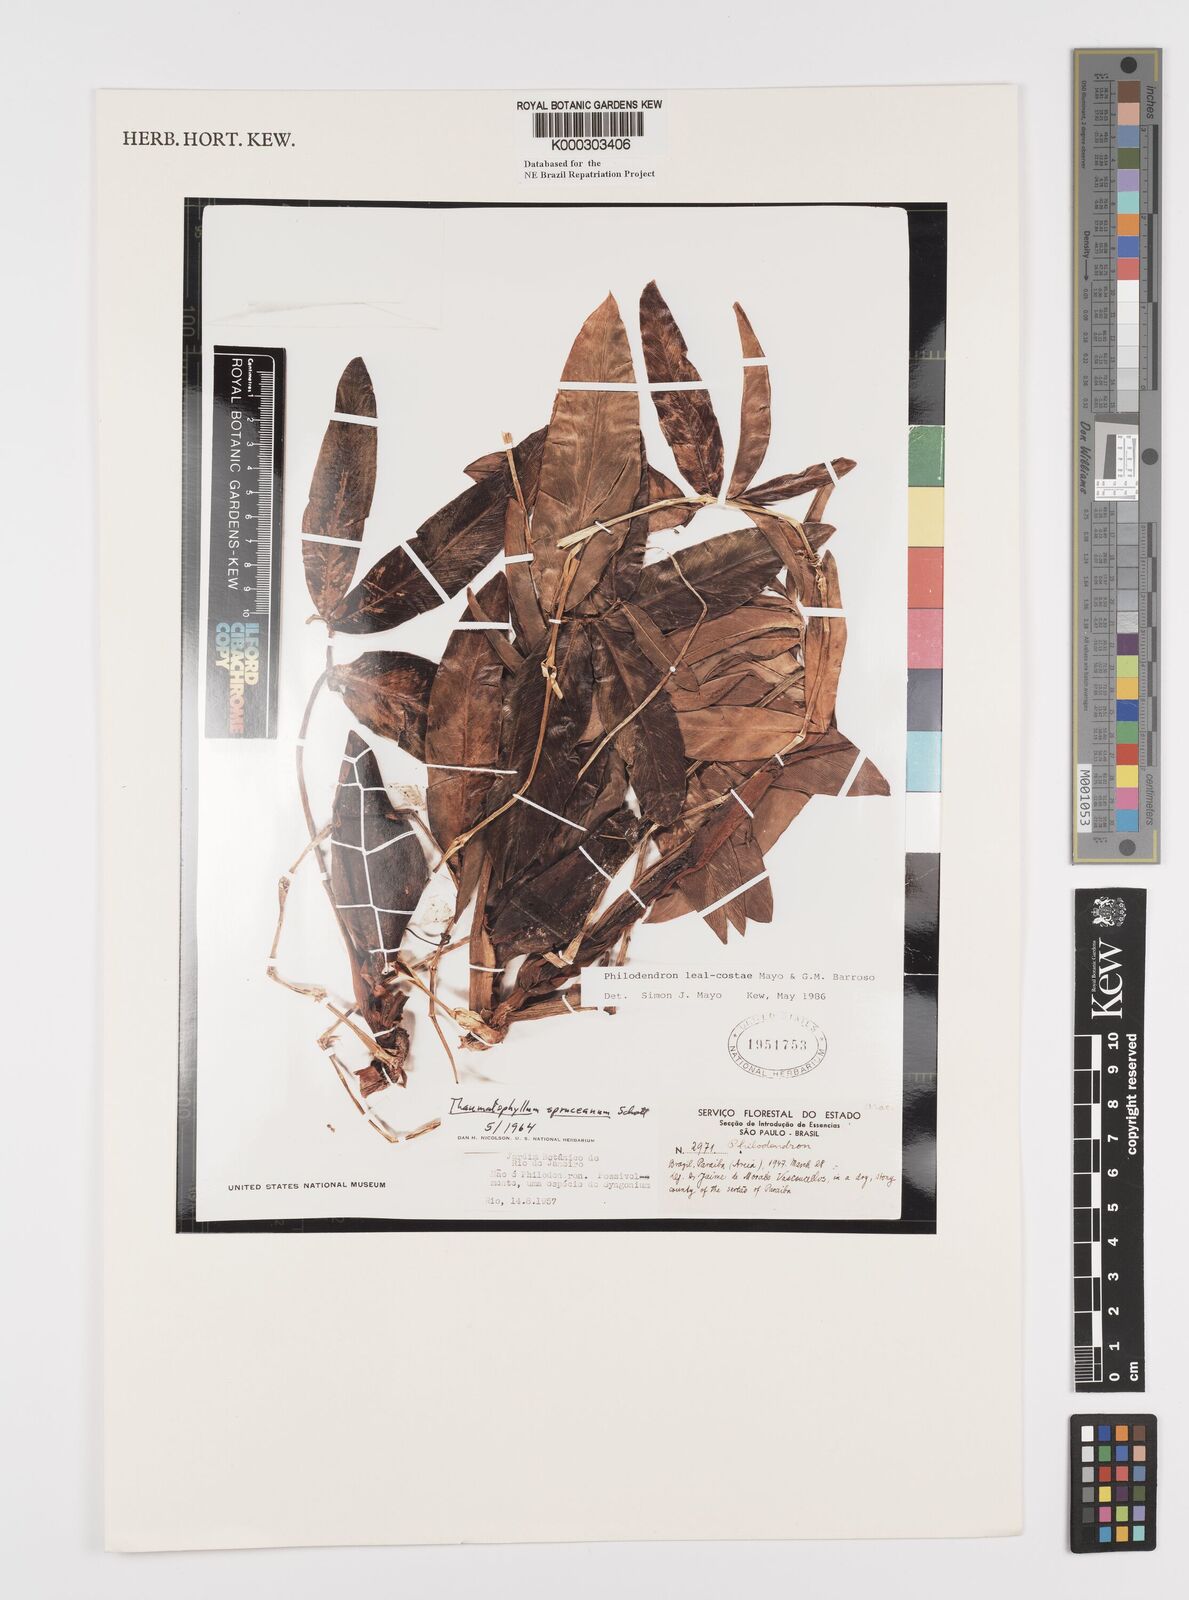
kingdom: Plantae
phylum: Tracheophyta
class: Liliopsida
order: Alismatales
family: Araceae
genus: Thaumatophyllum
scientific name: Thaumatophyllum leal-costae
